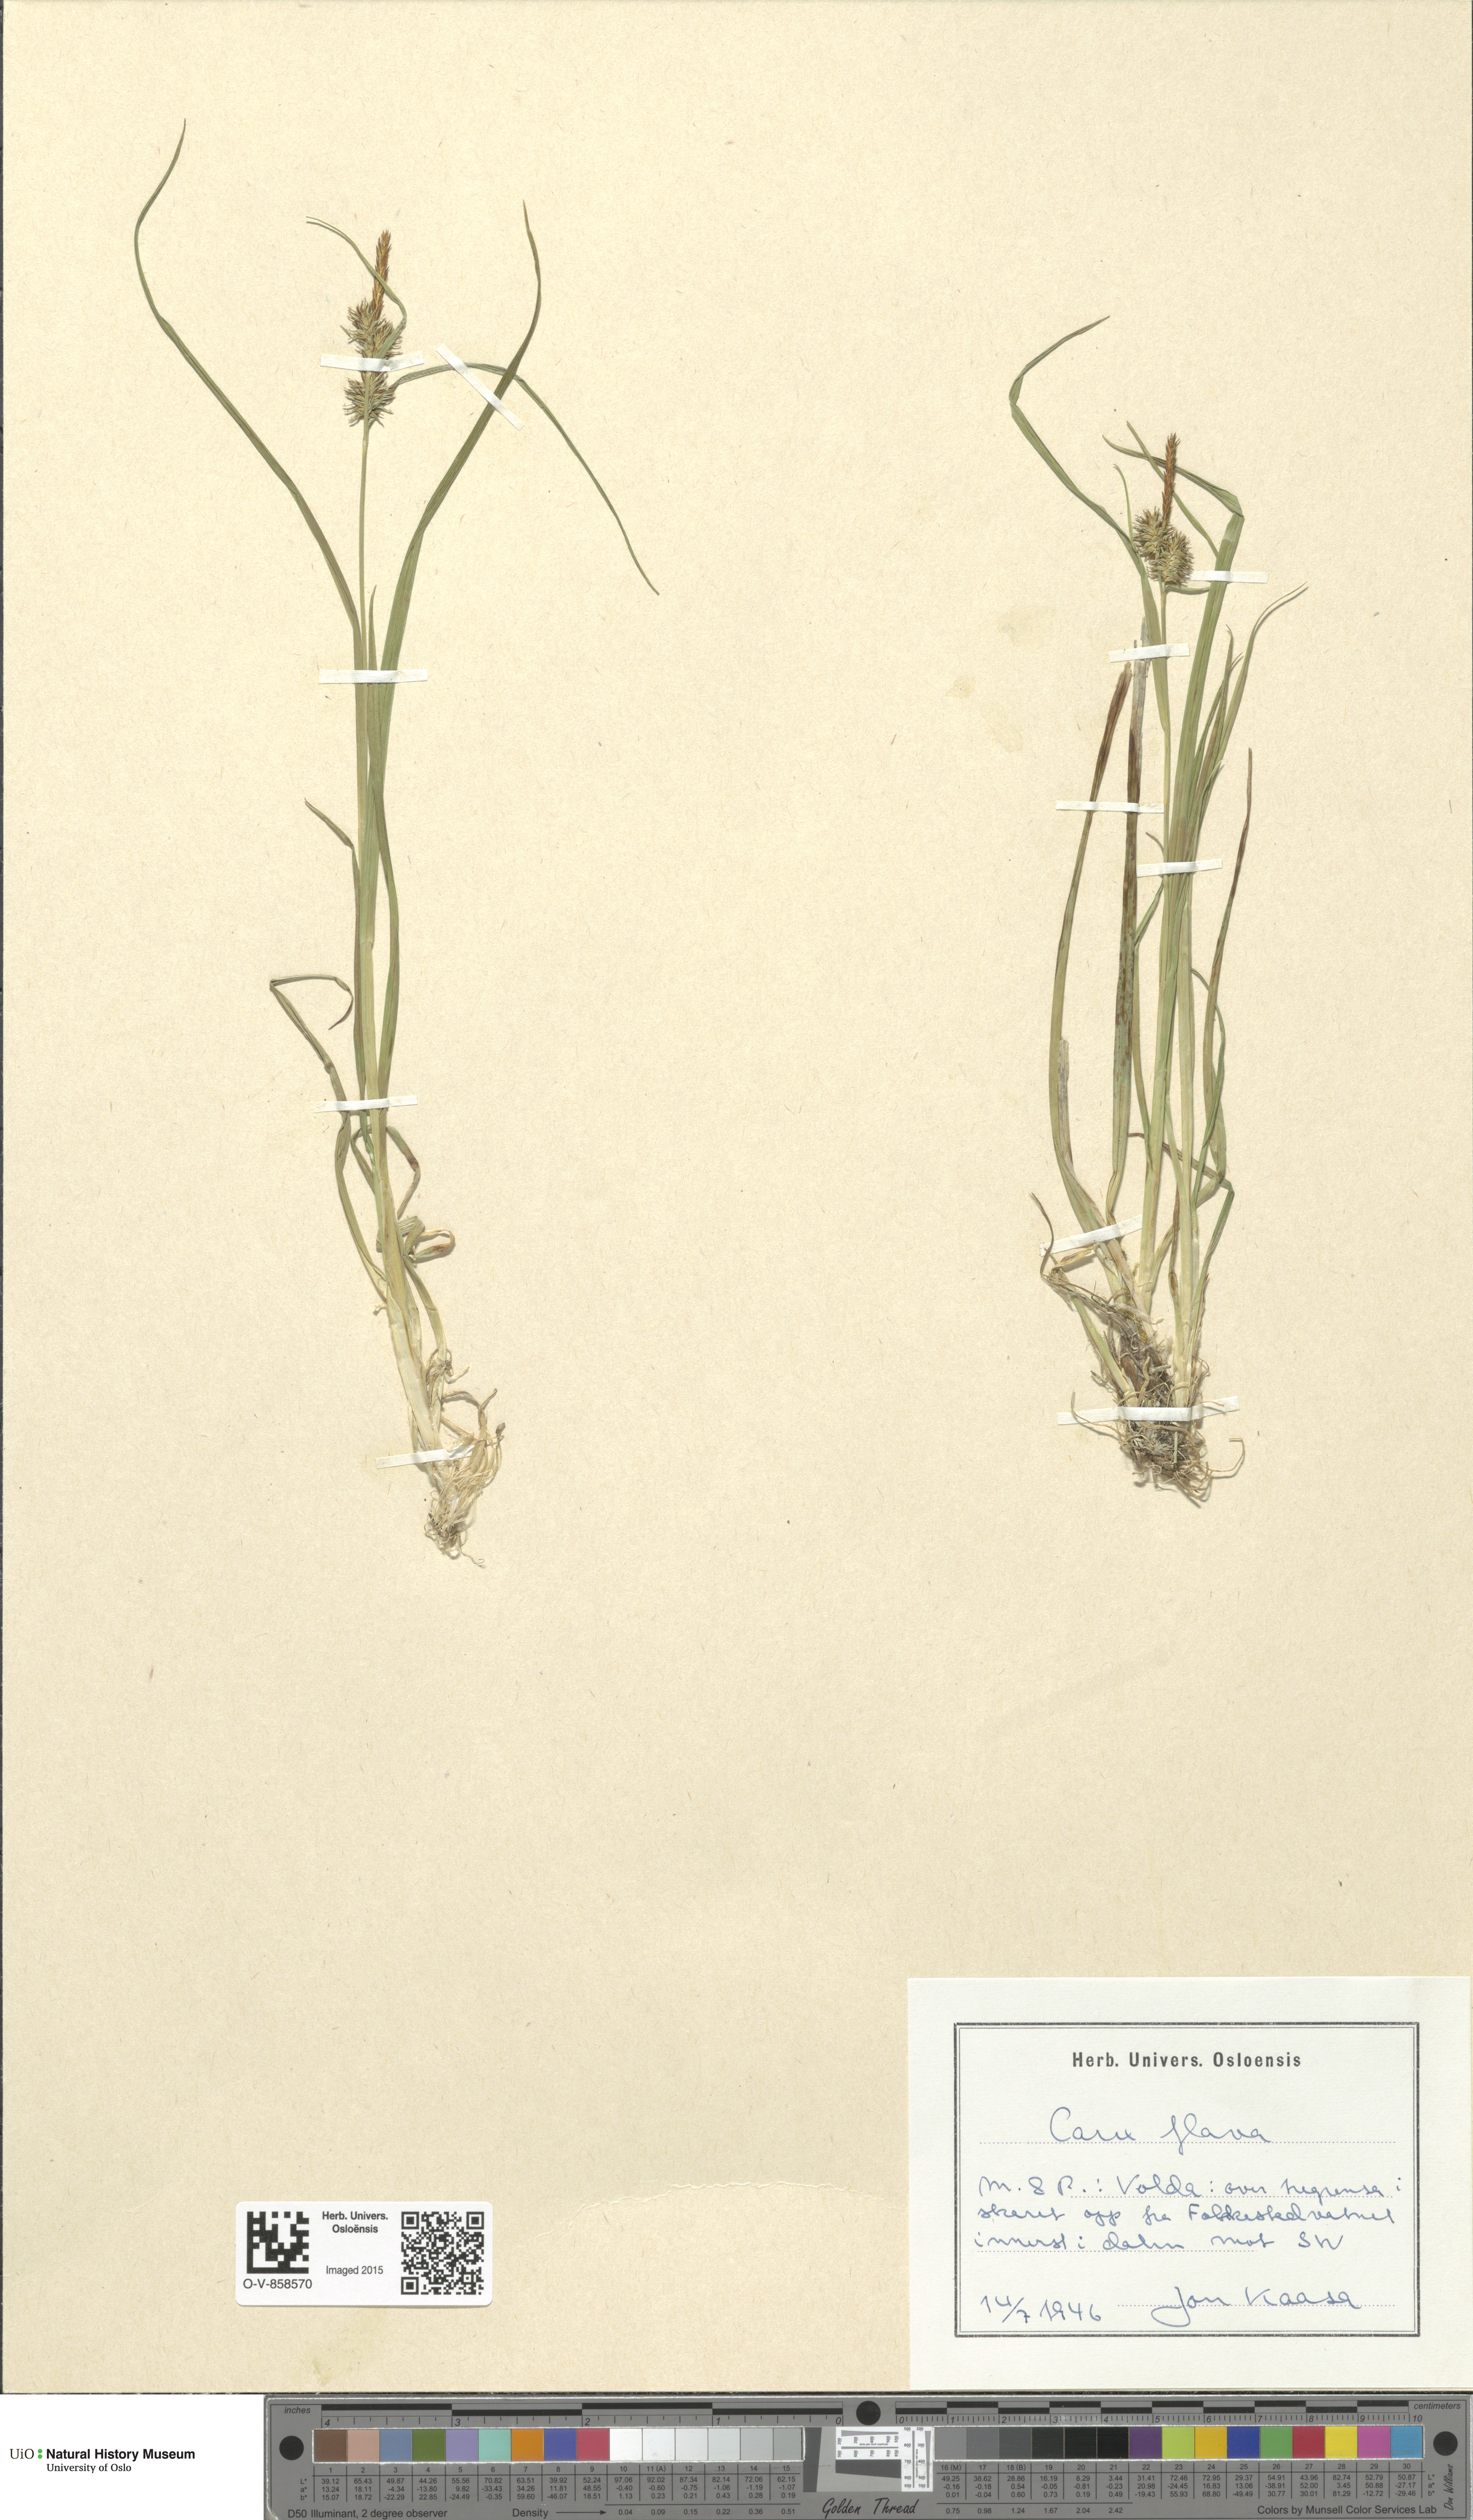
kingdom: Plantae
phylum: Tracheophyta
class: Liliopsida
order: Poales
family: Cyperaceae
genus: Carex
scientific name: Carex flava
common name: Large yellow-sedge
